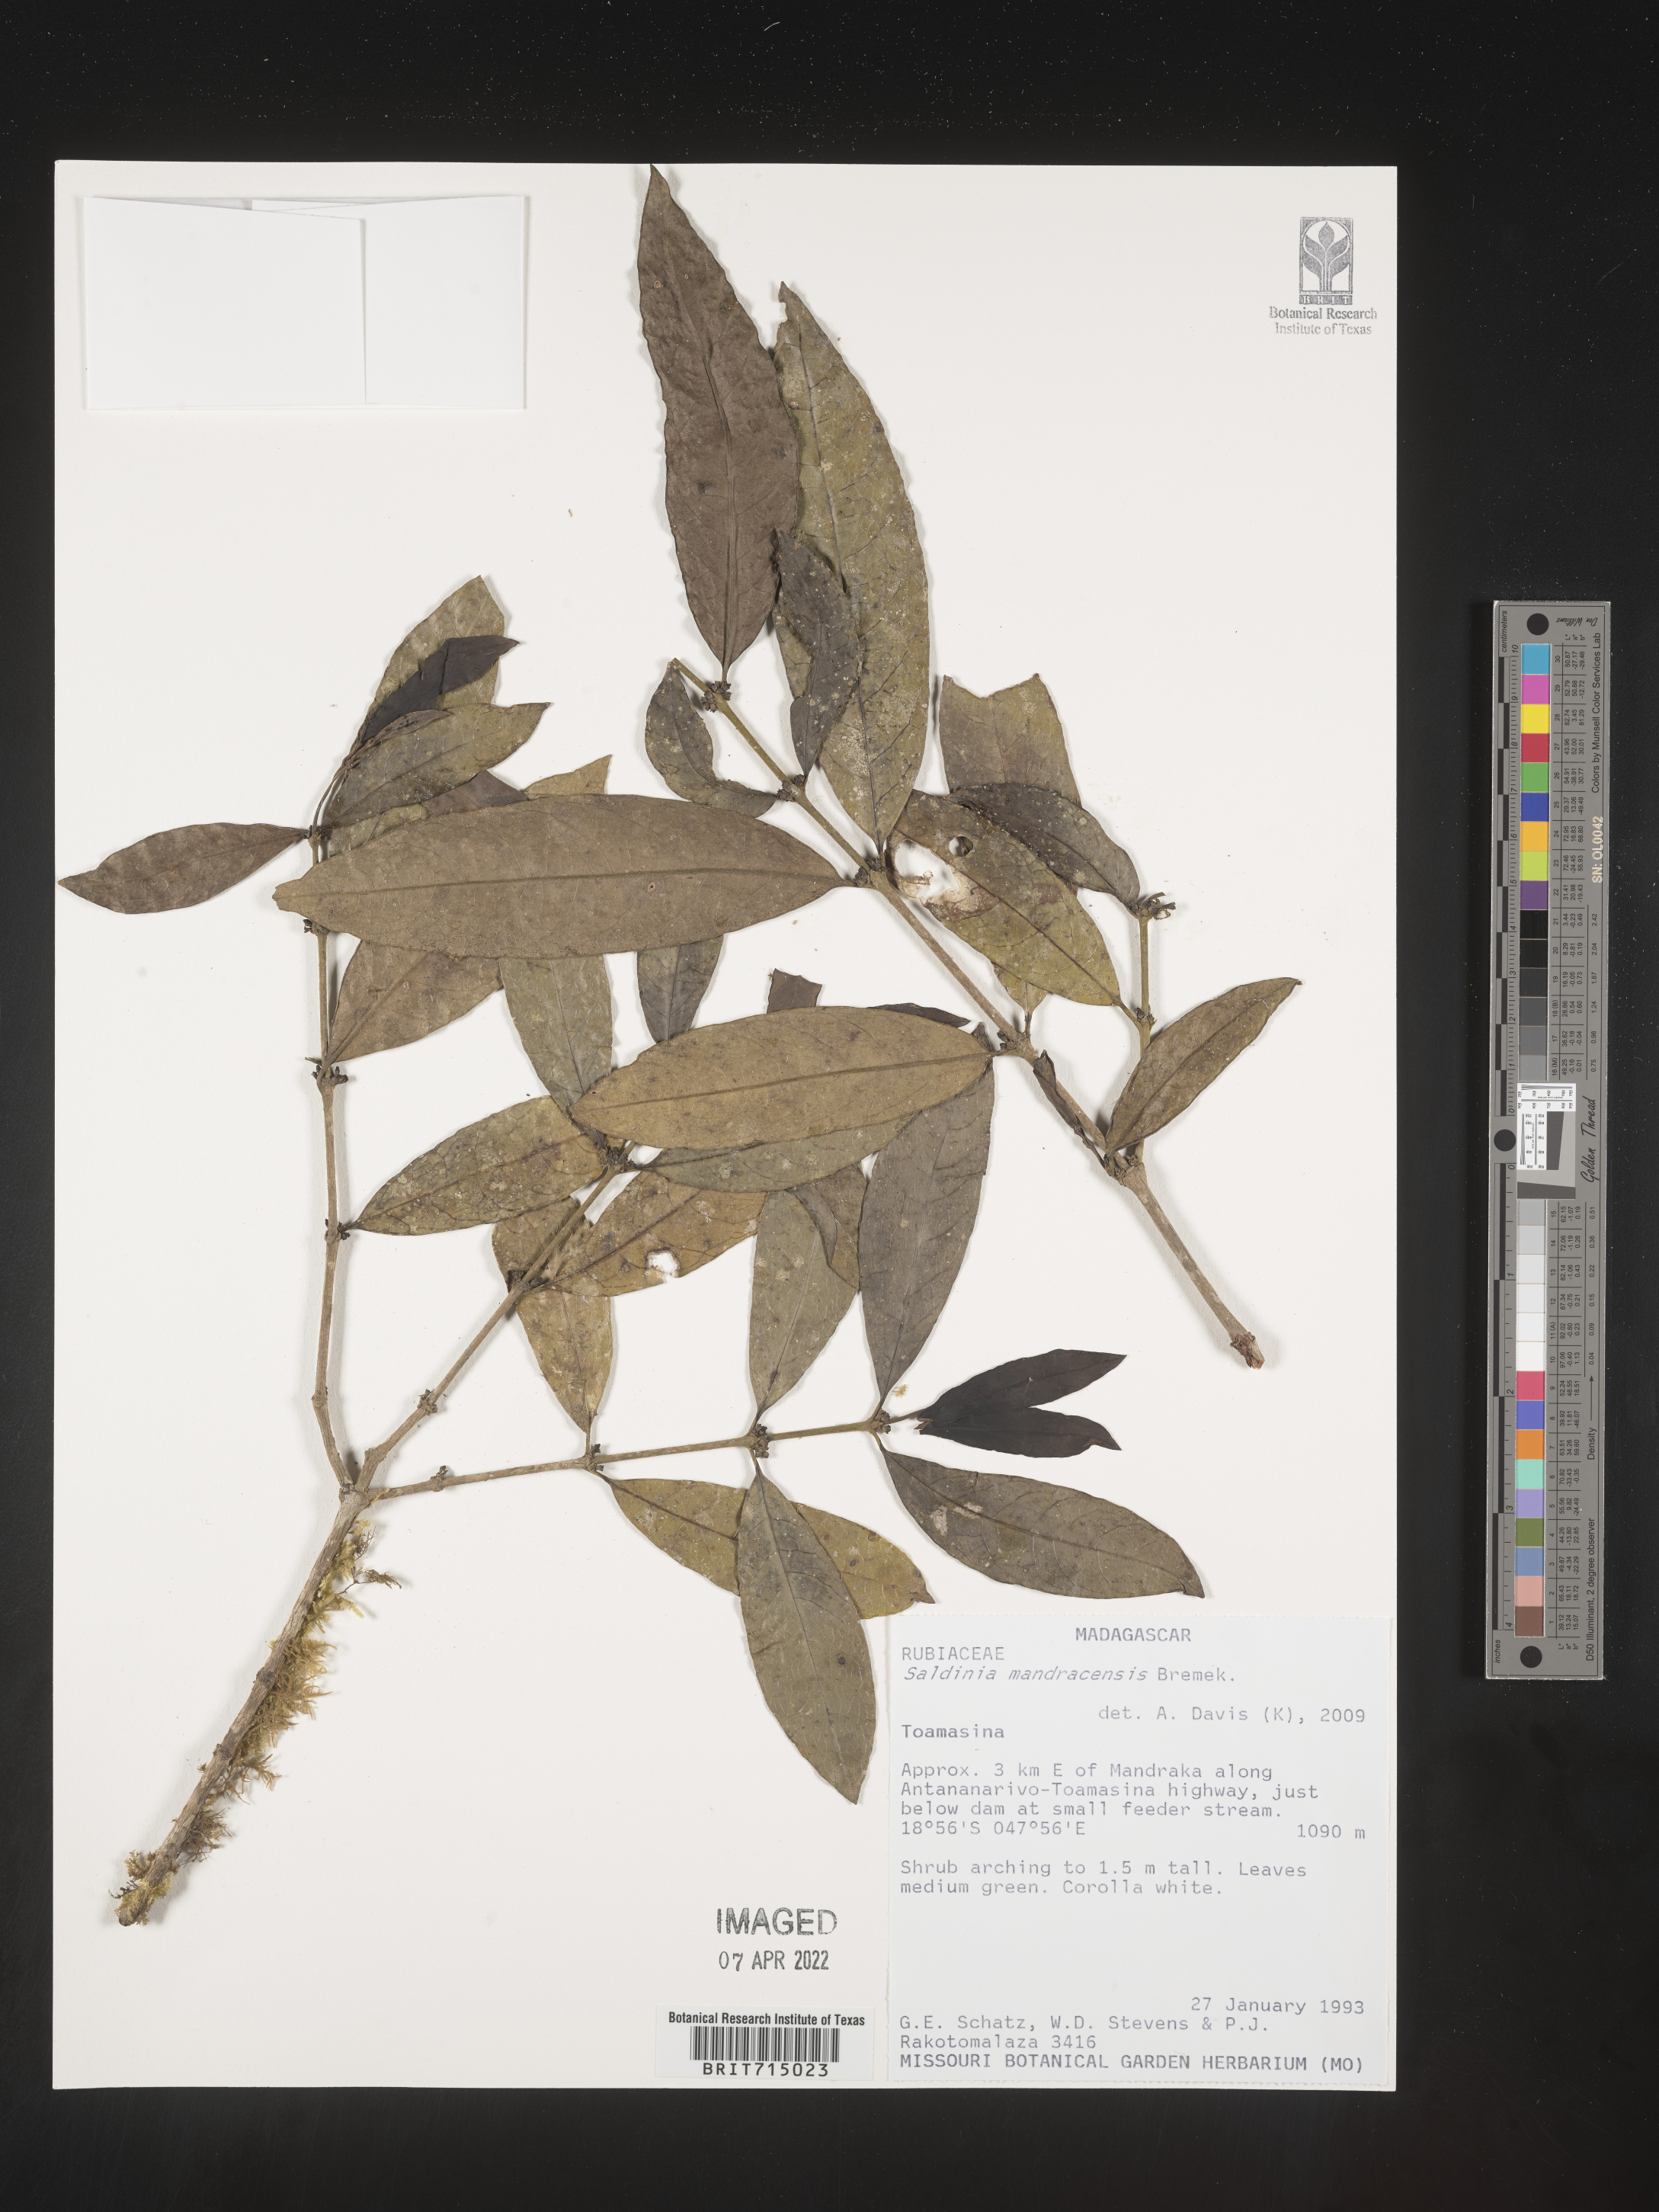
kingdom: Plantae
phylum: Tracheophyta
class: Magnoliopsida
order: Gentianales
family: Rubiaceae
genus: Saldinia
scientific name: Saldinia
